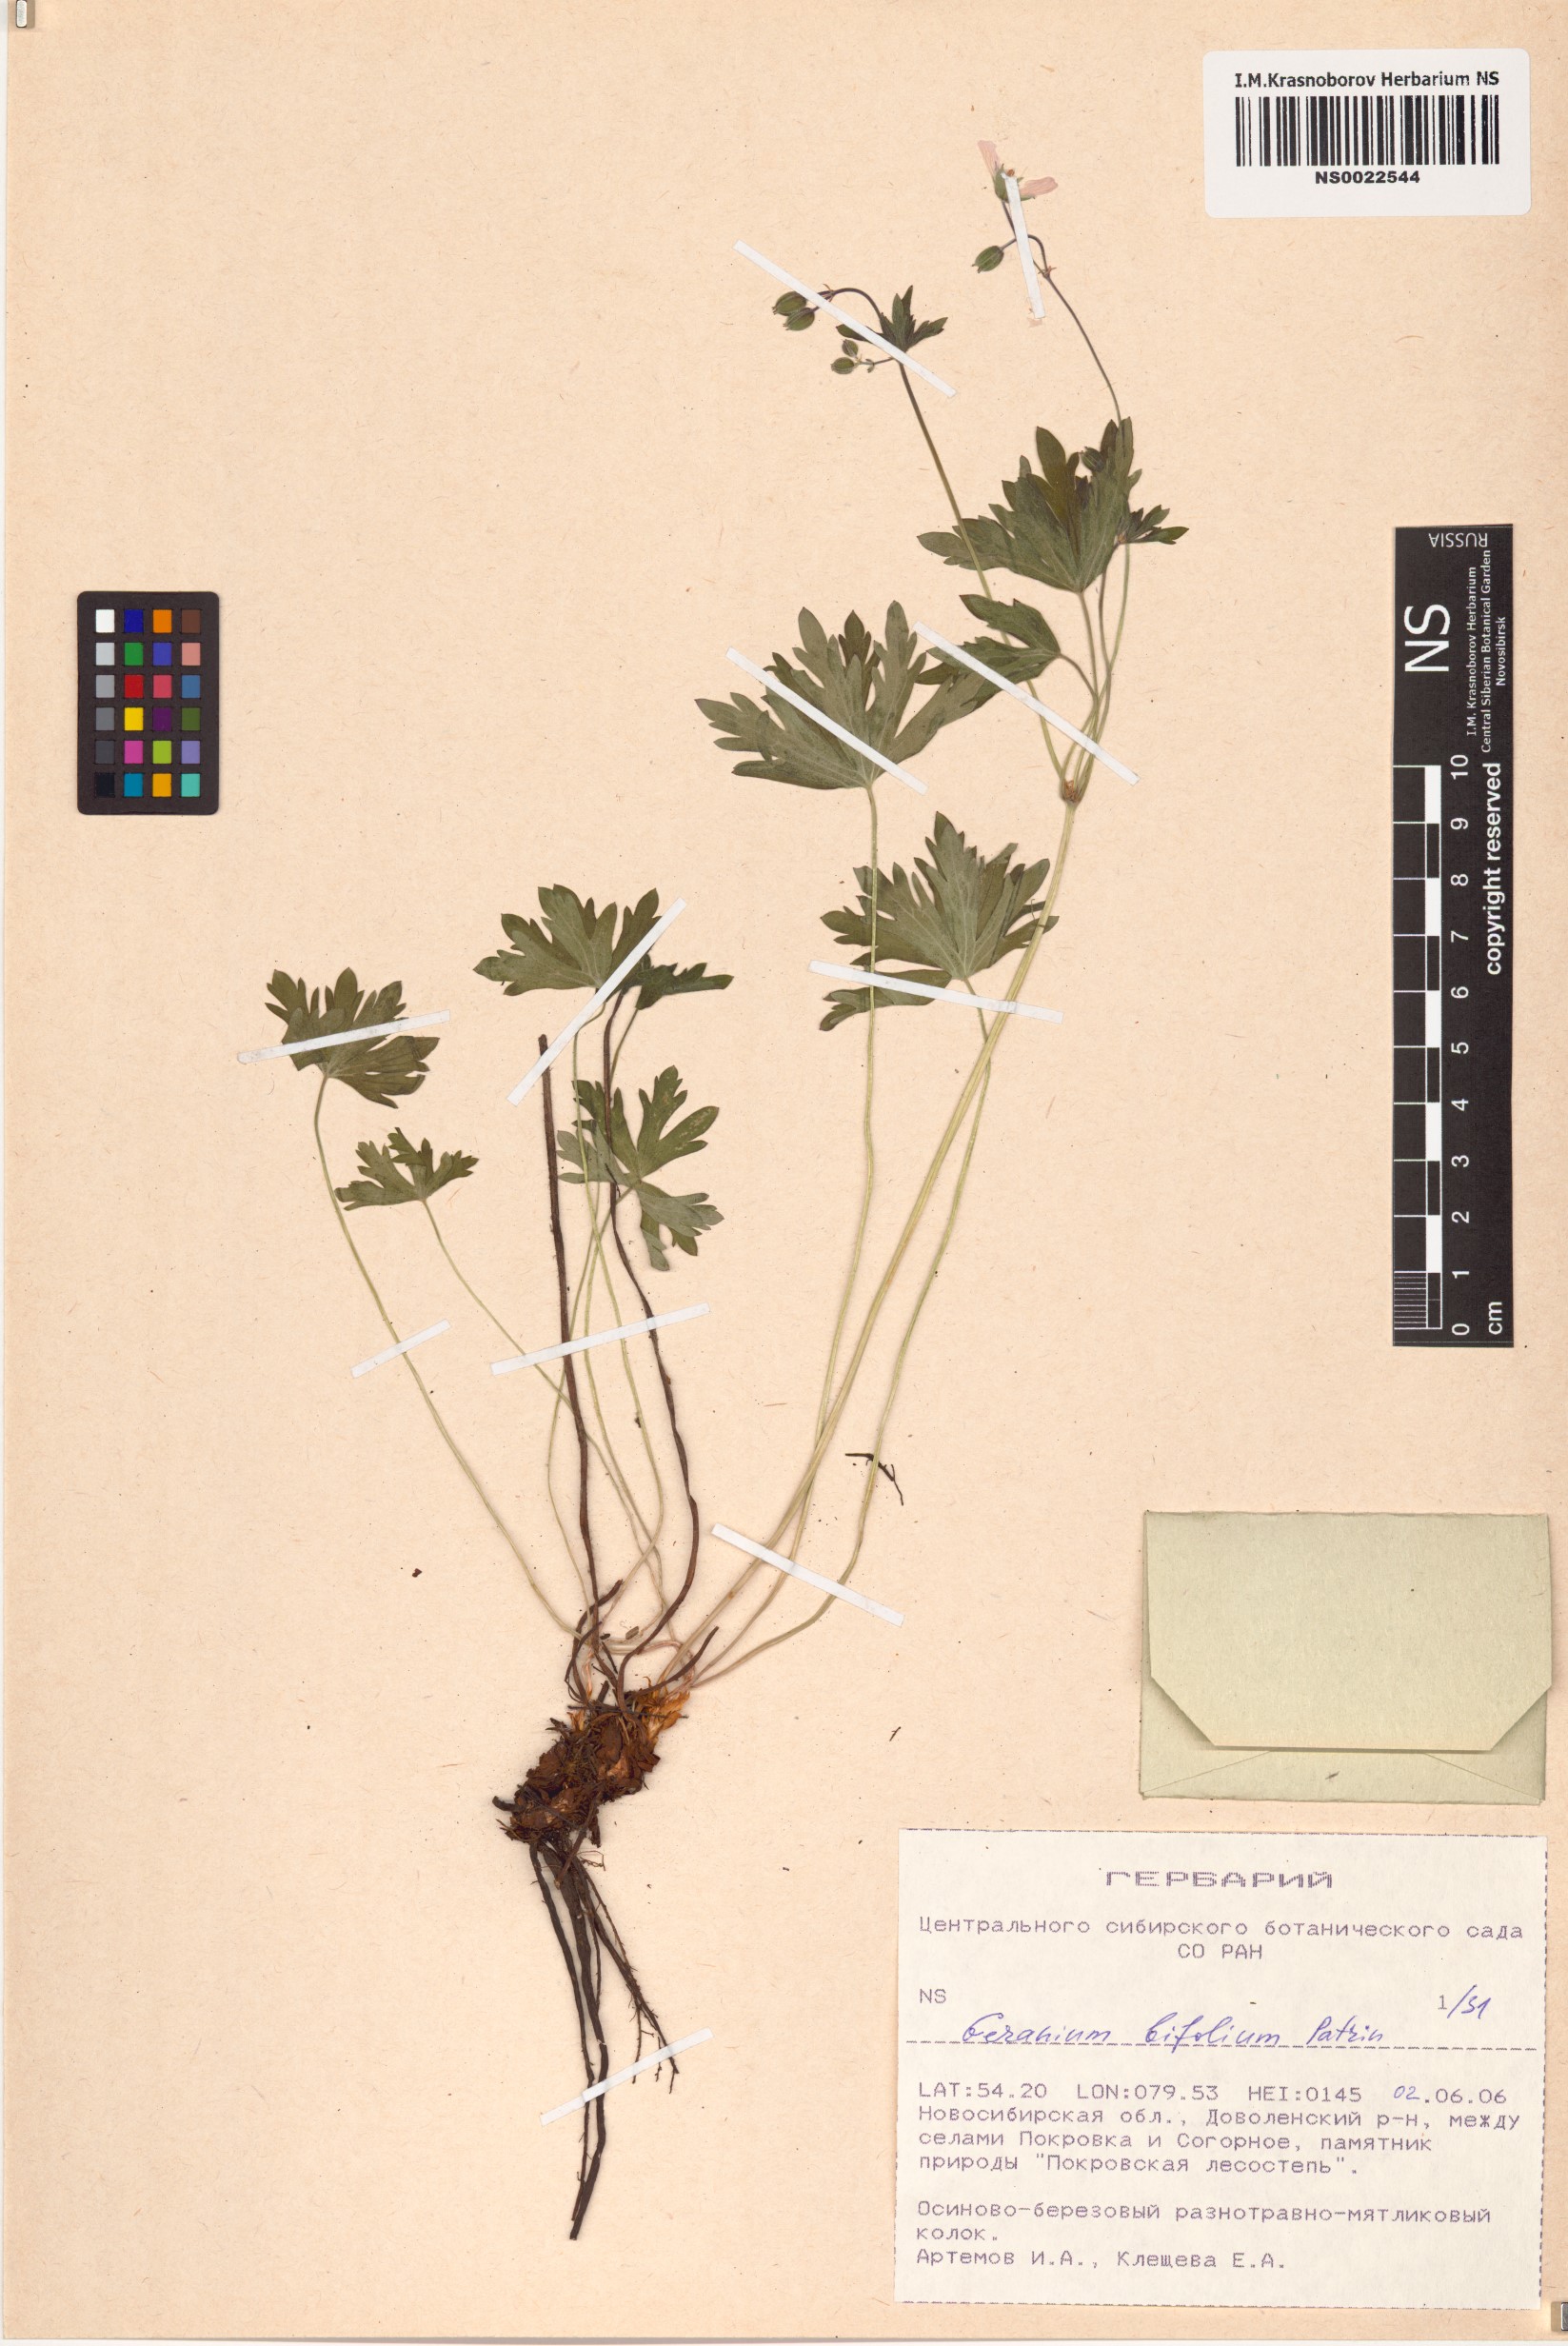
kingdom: Plantae
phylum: Tracheophyta
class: Magnoliopsida
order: Geraniales
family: Geraniaceae
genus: Geranium
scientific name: Geranium pseudosibiricum
